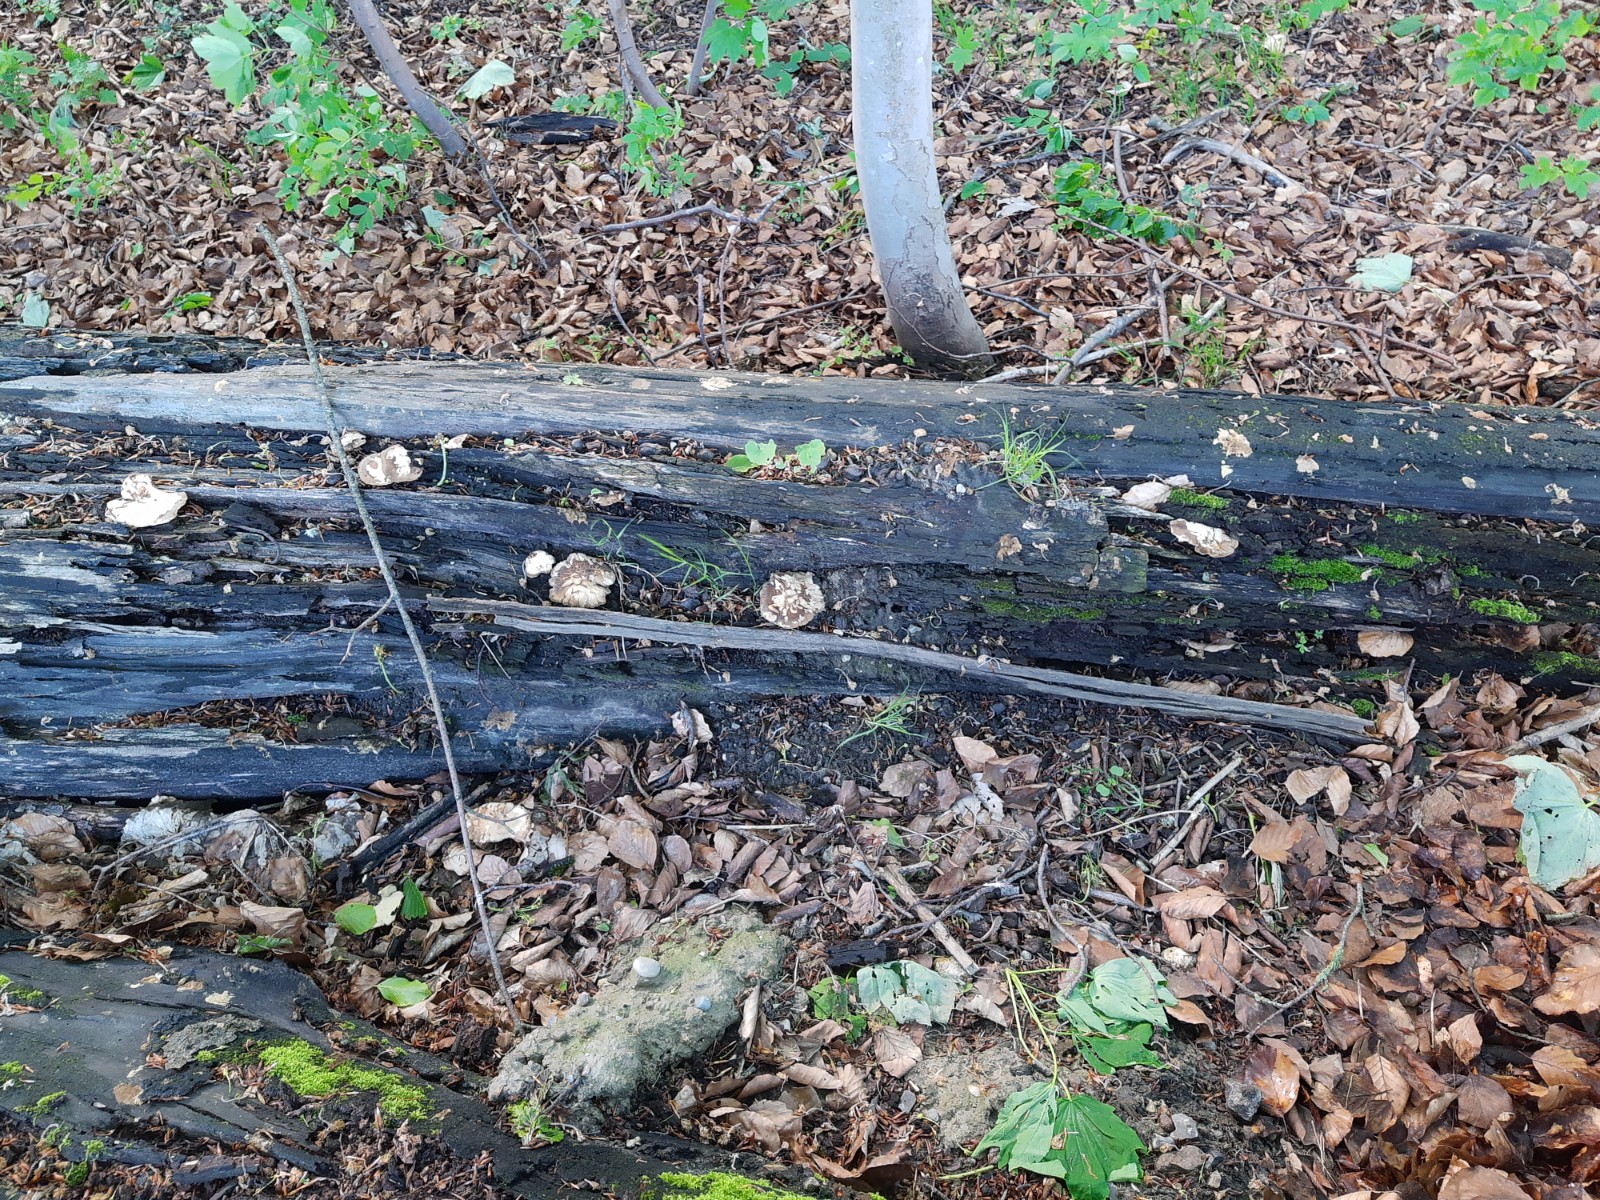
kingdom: Fungi
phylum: Basidiomycota
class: Agaricomycetes
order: Polyporales
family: Polyporaceae
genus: Lentinus
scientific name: Lentinus substrictus
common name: forårs-stilkporesvamp
